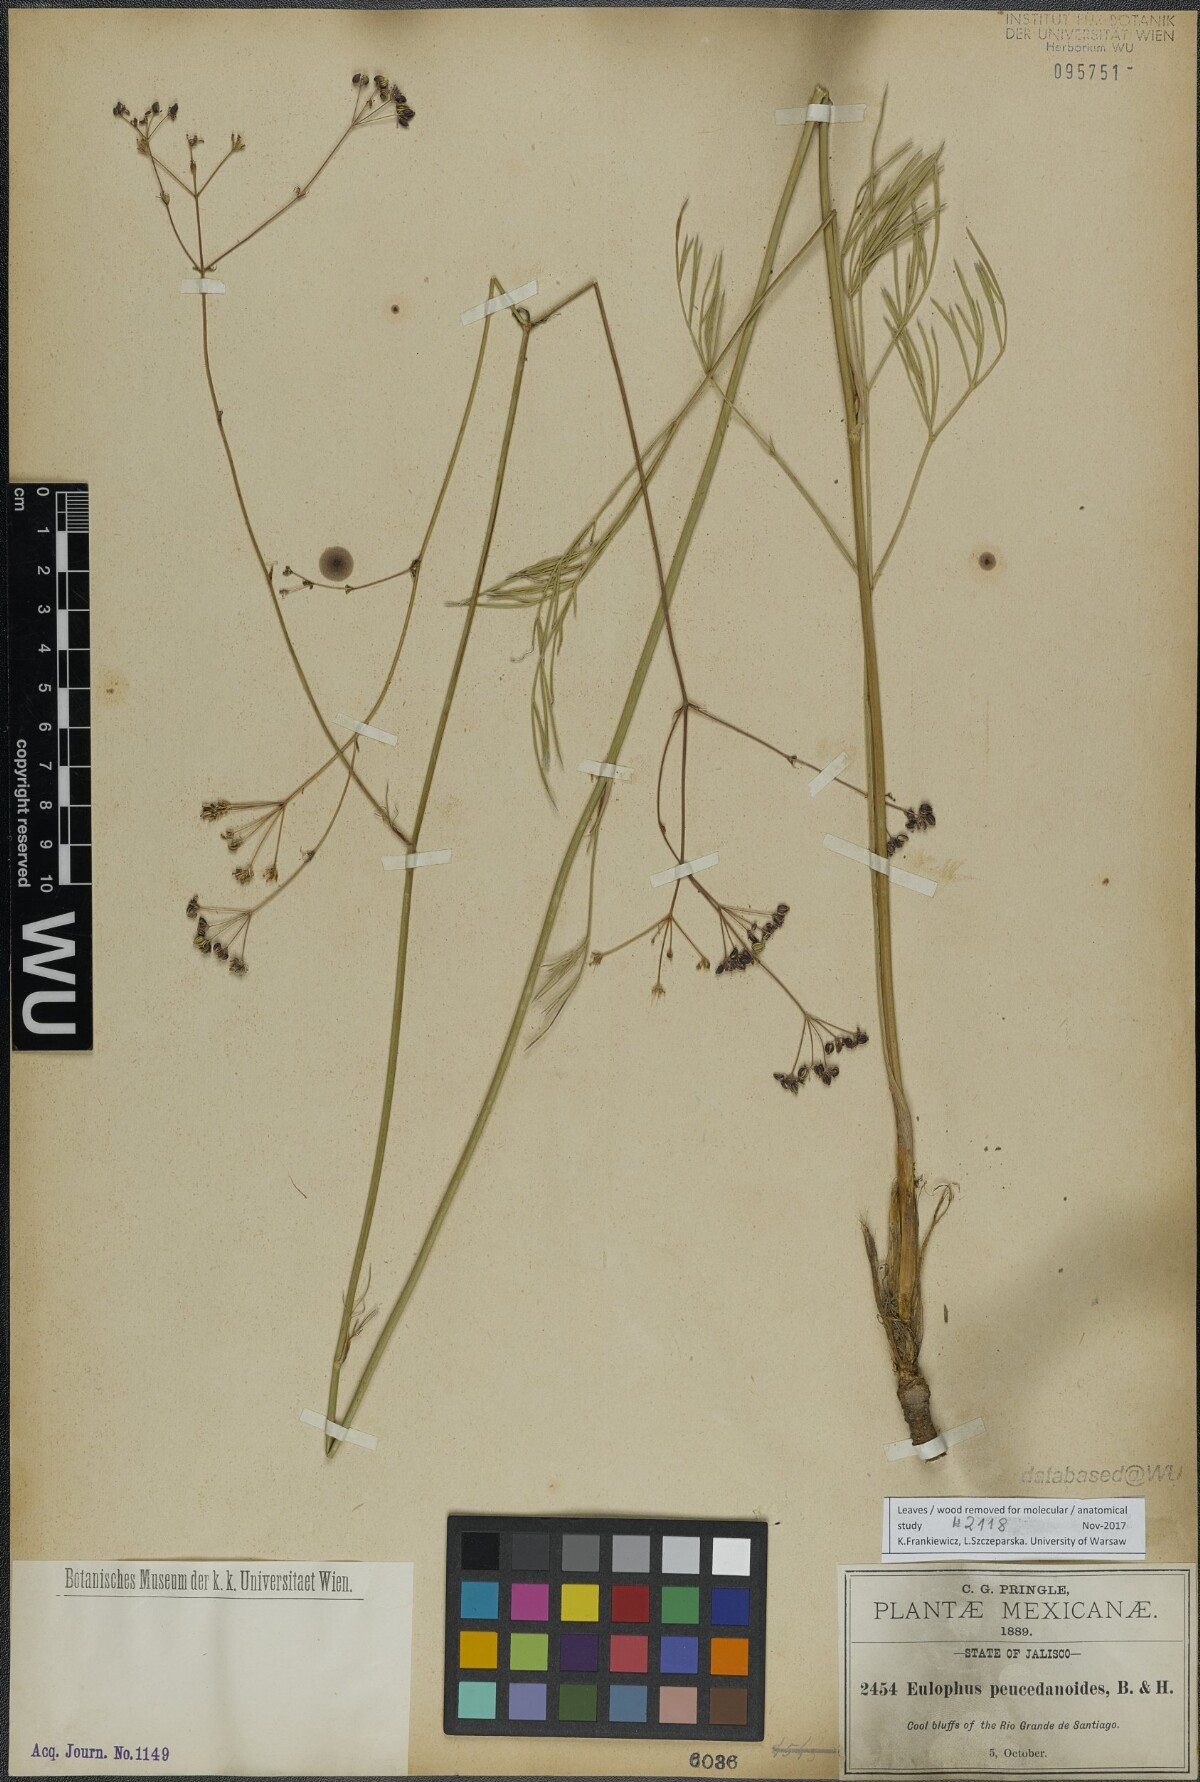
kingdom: Plantae
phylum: Tracheophyta
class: Magnoliopsida
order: Apiales
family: Apiaceae
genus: Donnellsmithia
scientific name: Donnellsmithia juncea
